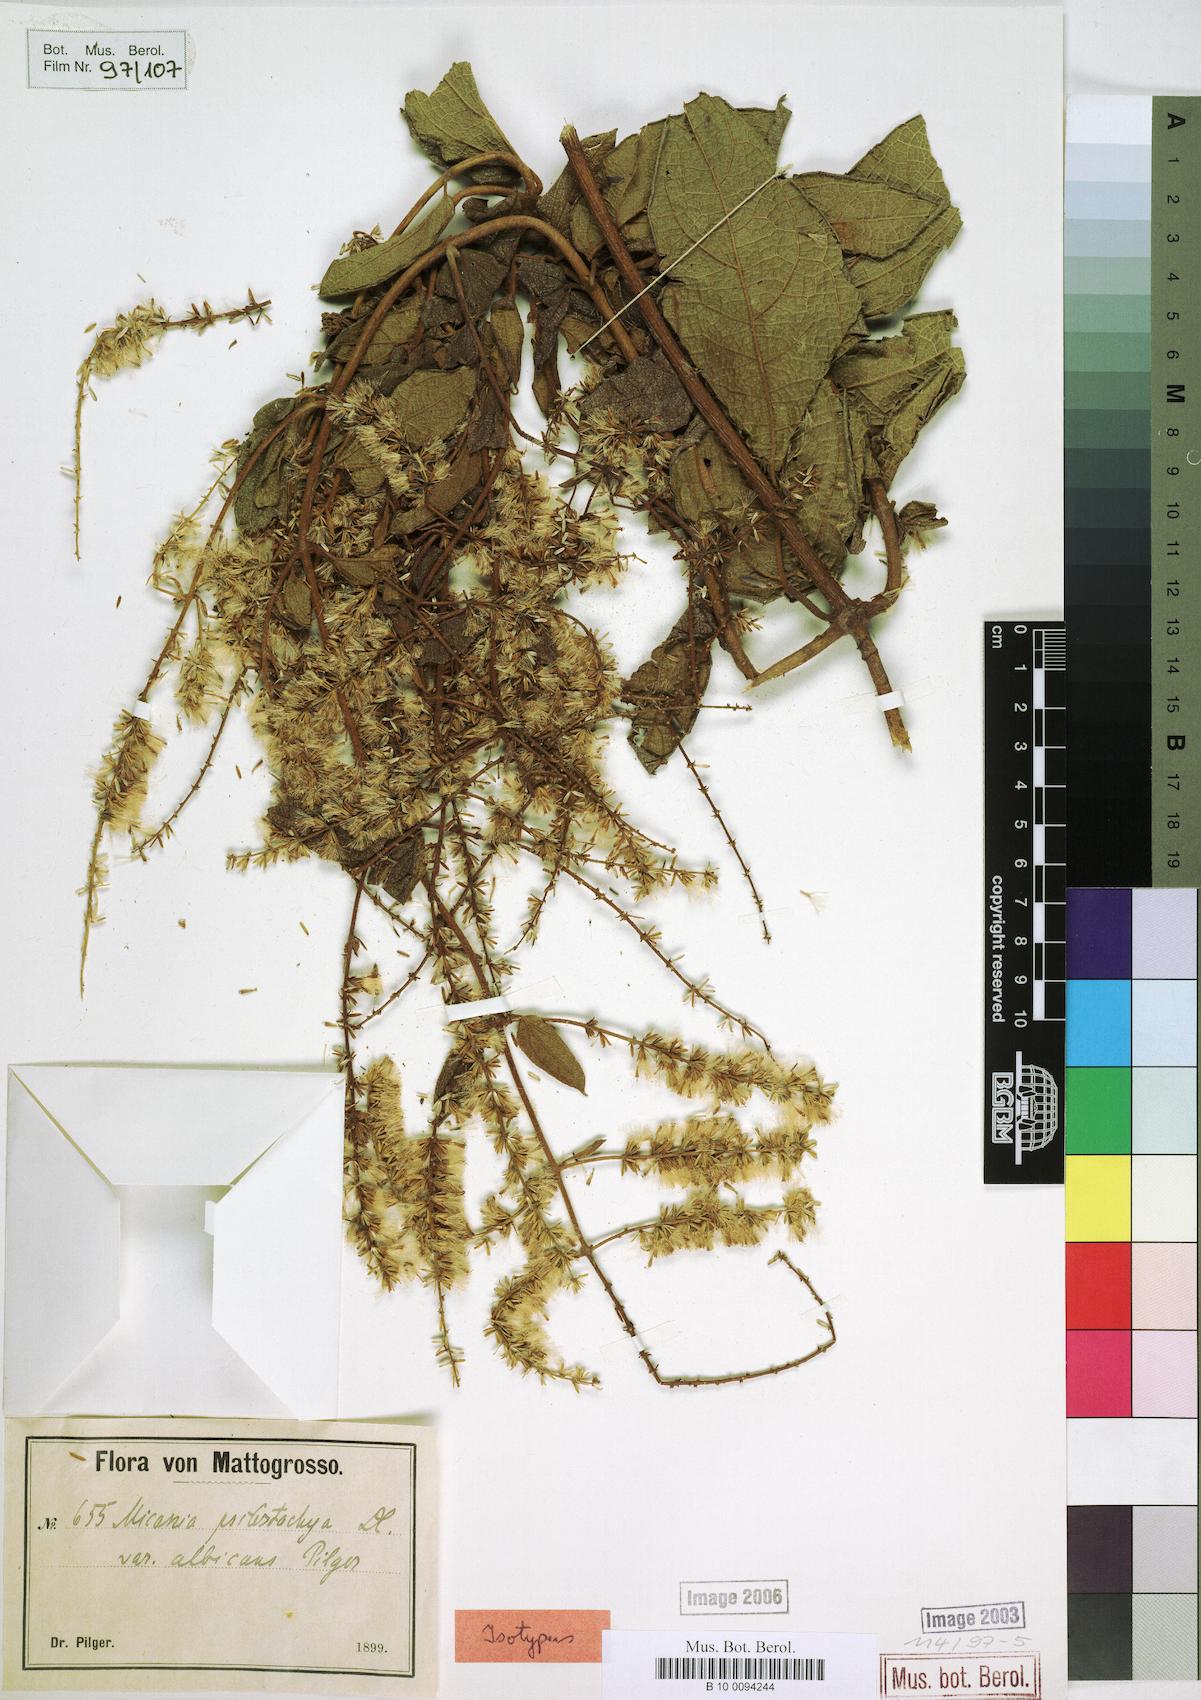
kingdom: Plantae
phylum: Tracheophyta
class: Magnoliopsida
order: Asterales
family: Asteraceae
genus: Mikania
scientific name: Mikania psilostachya
